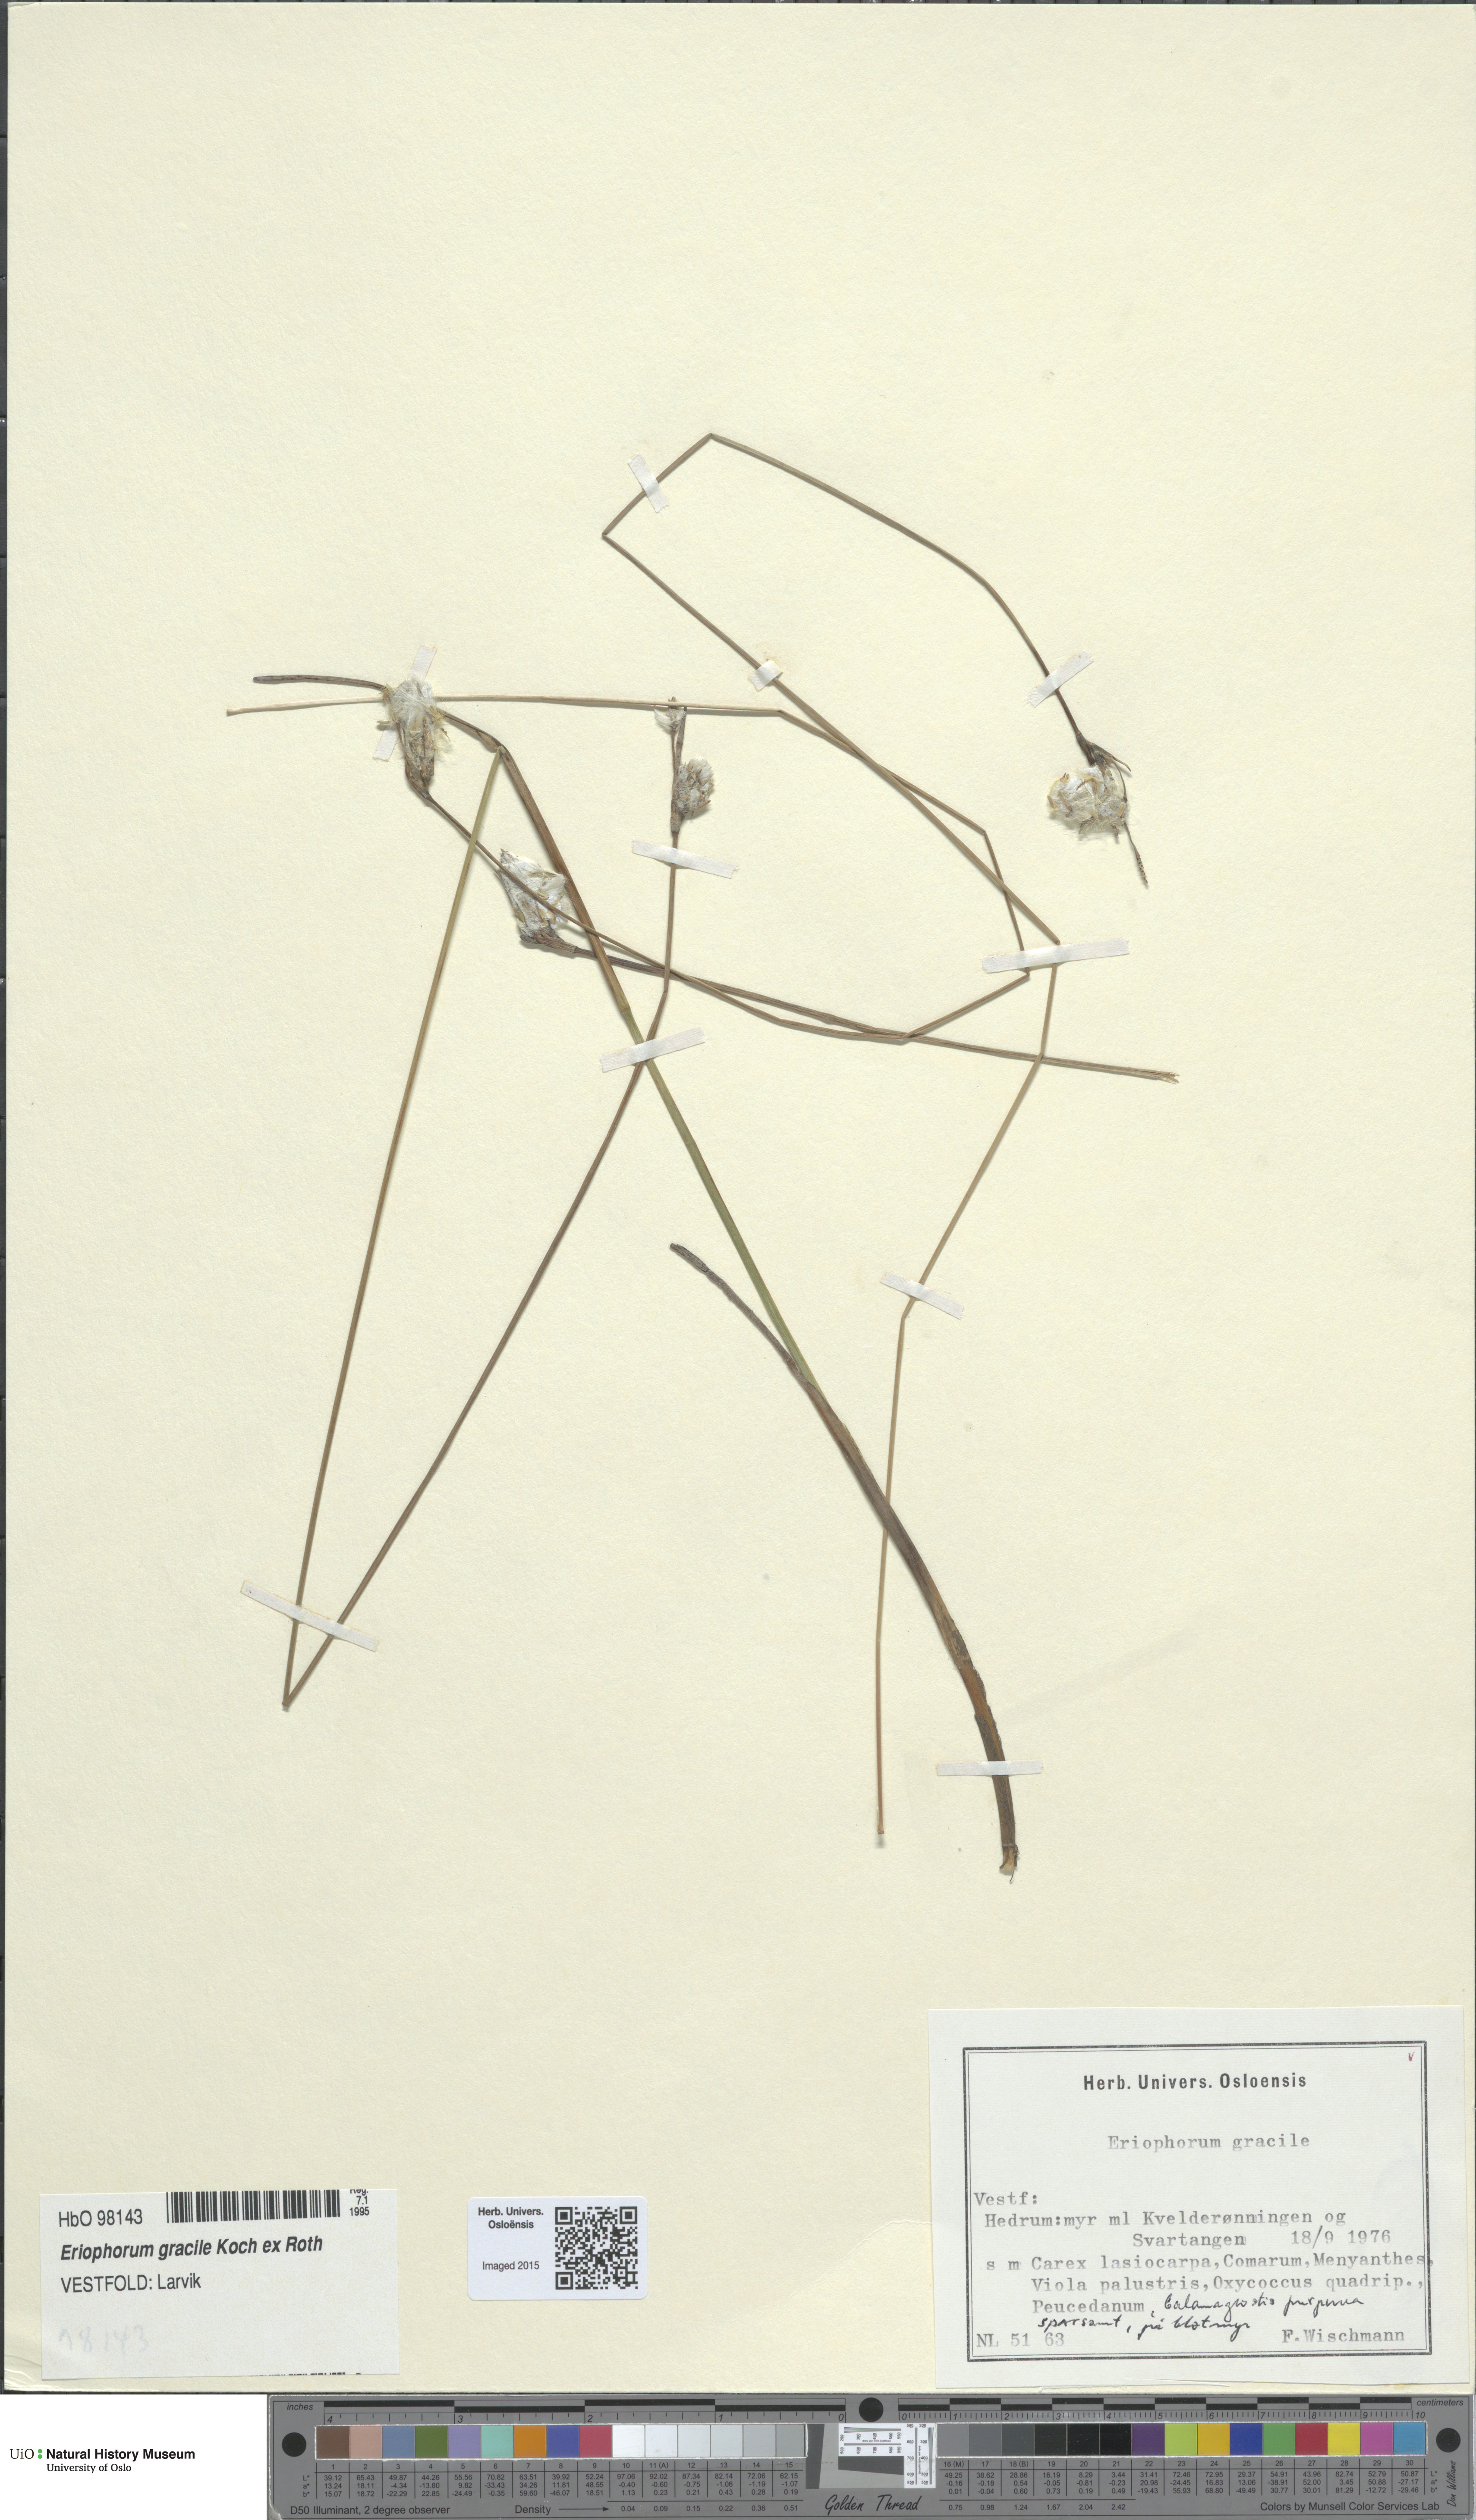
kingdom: Plantae
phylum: Tracheophyta
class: Liliopsida
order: Poales
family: Cyperaceae
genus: Eriophorum
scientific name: Eriophorum gracile
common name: Slender cottongrass
